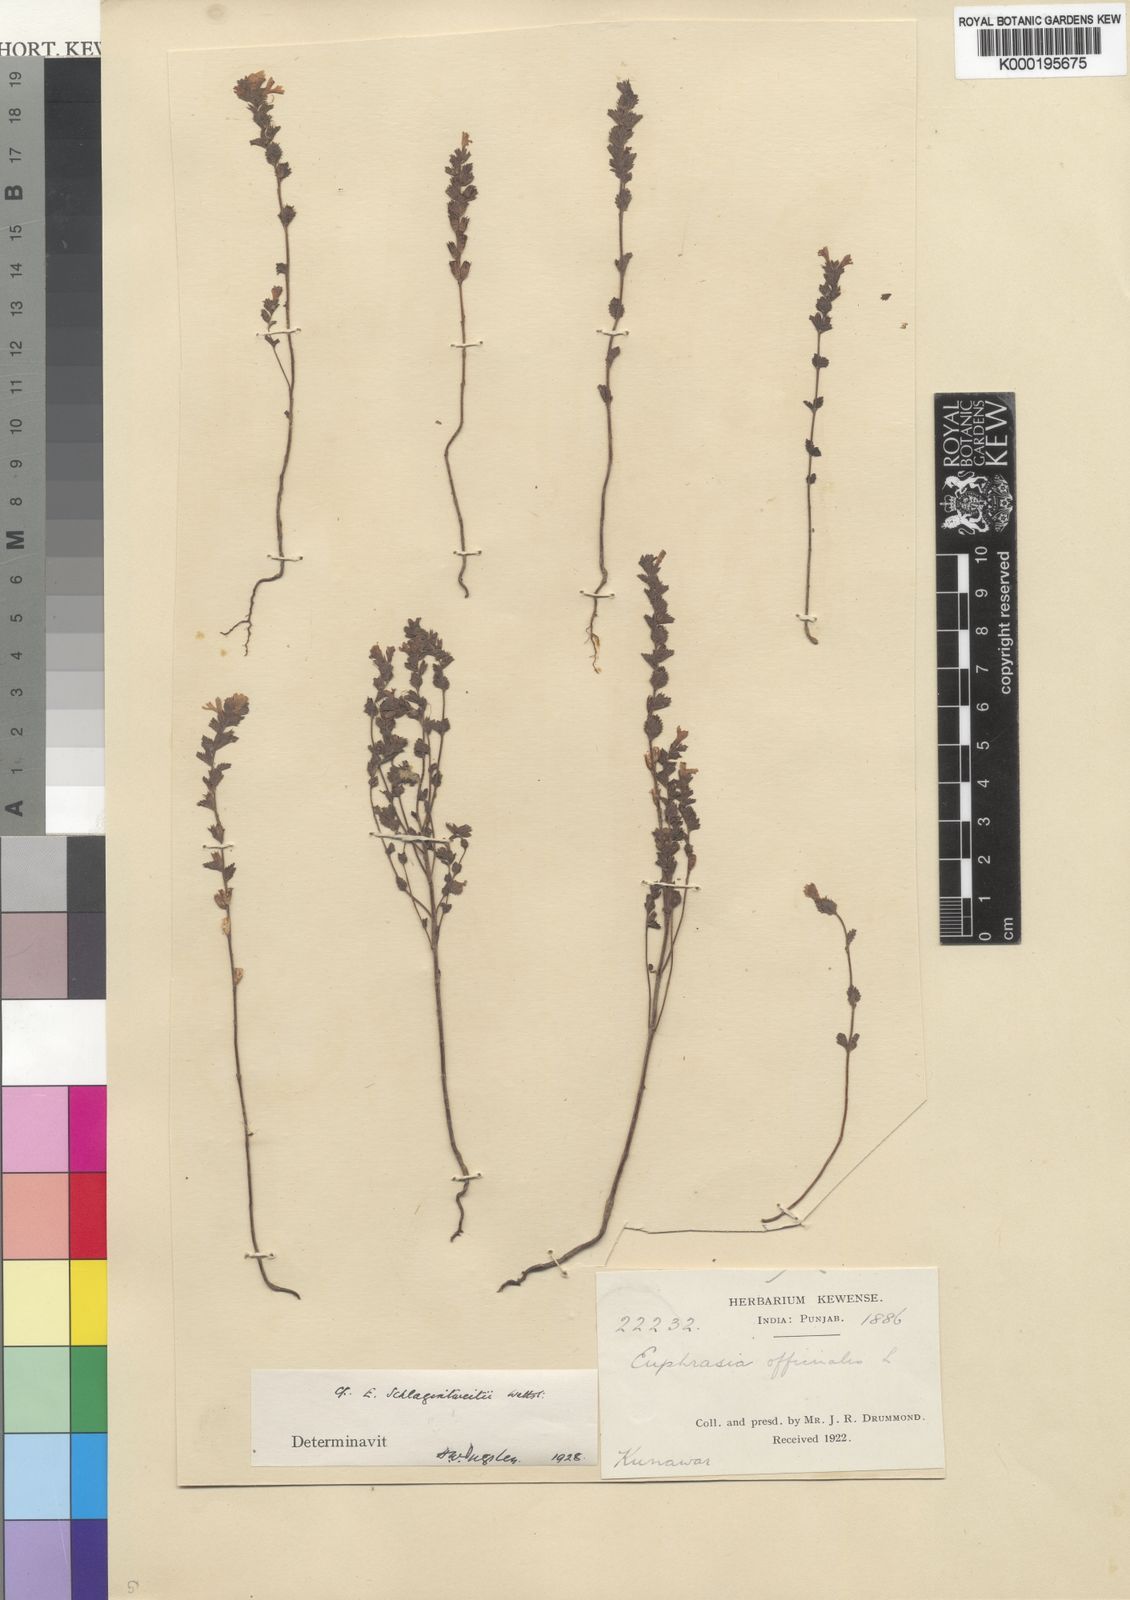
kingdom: Plantae
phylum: Tracheophyta
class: Magnoliopsida
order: Lamiales
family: Orobanchaceae
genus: Euphrasia
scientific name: Euphrasia schlagintweitii
